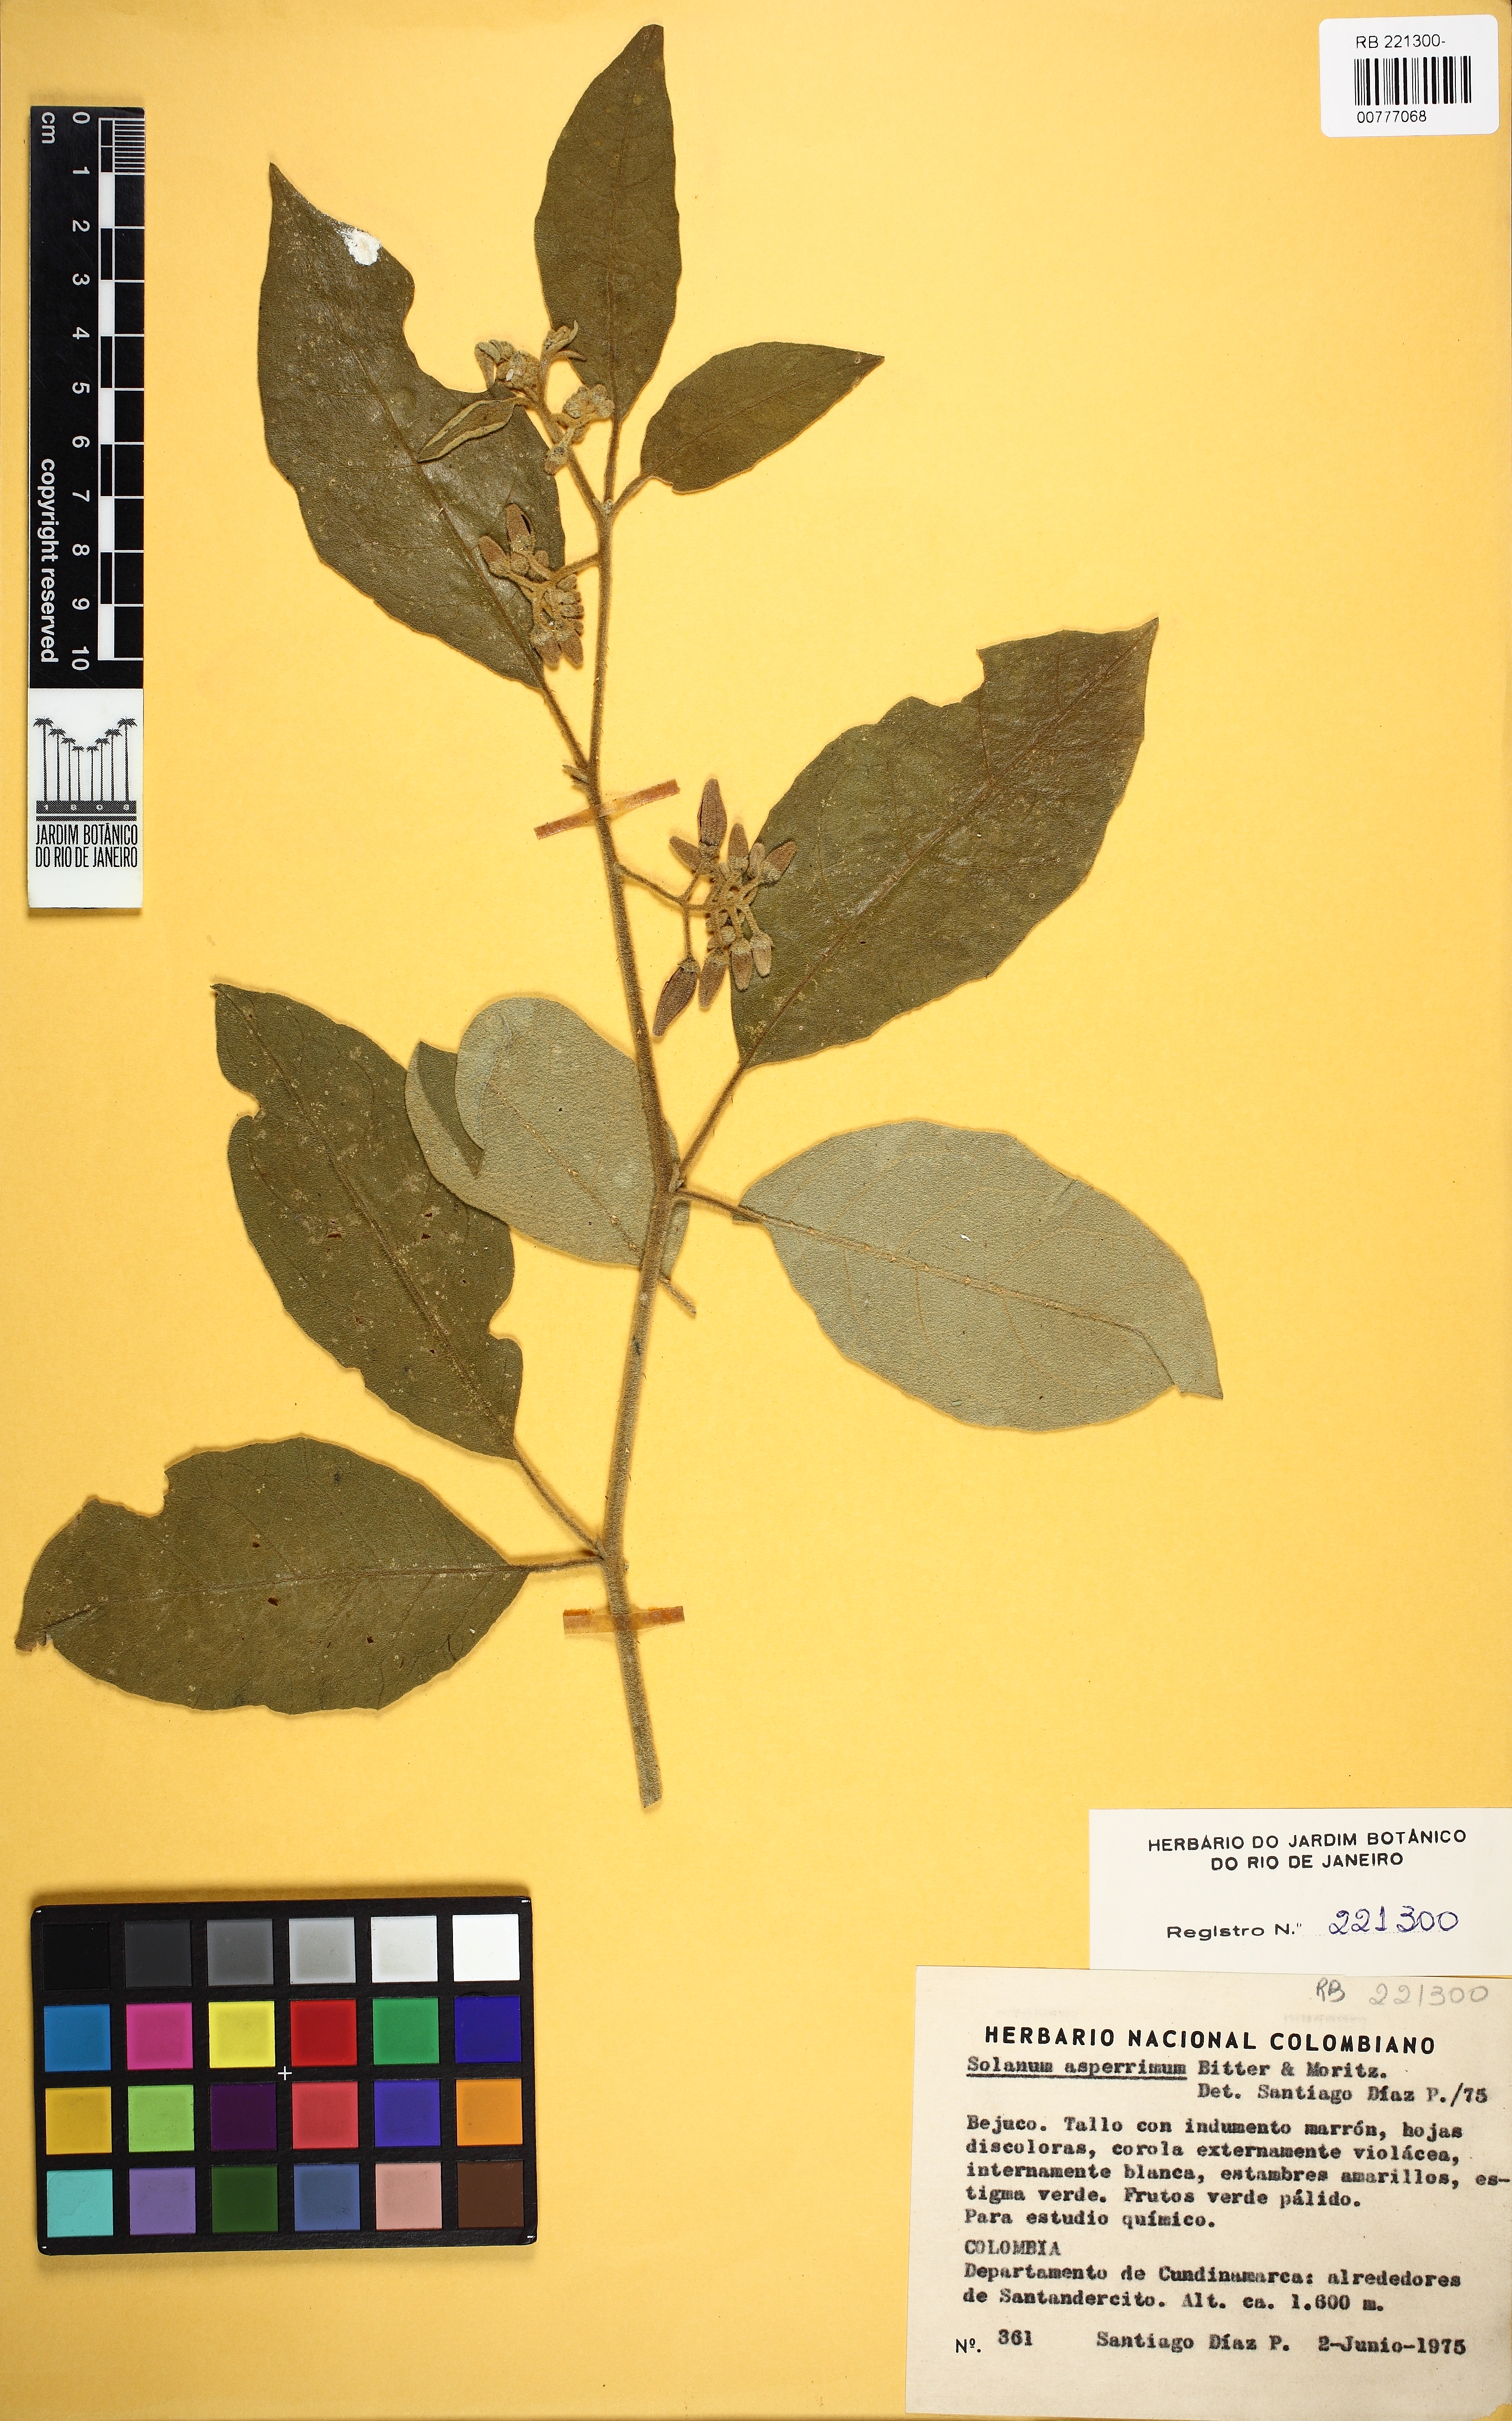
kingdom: Plantae
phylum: Tracheophyta
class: Magnoliopsida
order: Solanales
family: Solanaceae
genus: Solanum
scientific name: Solanum aturense
